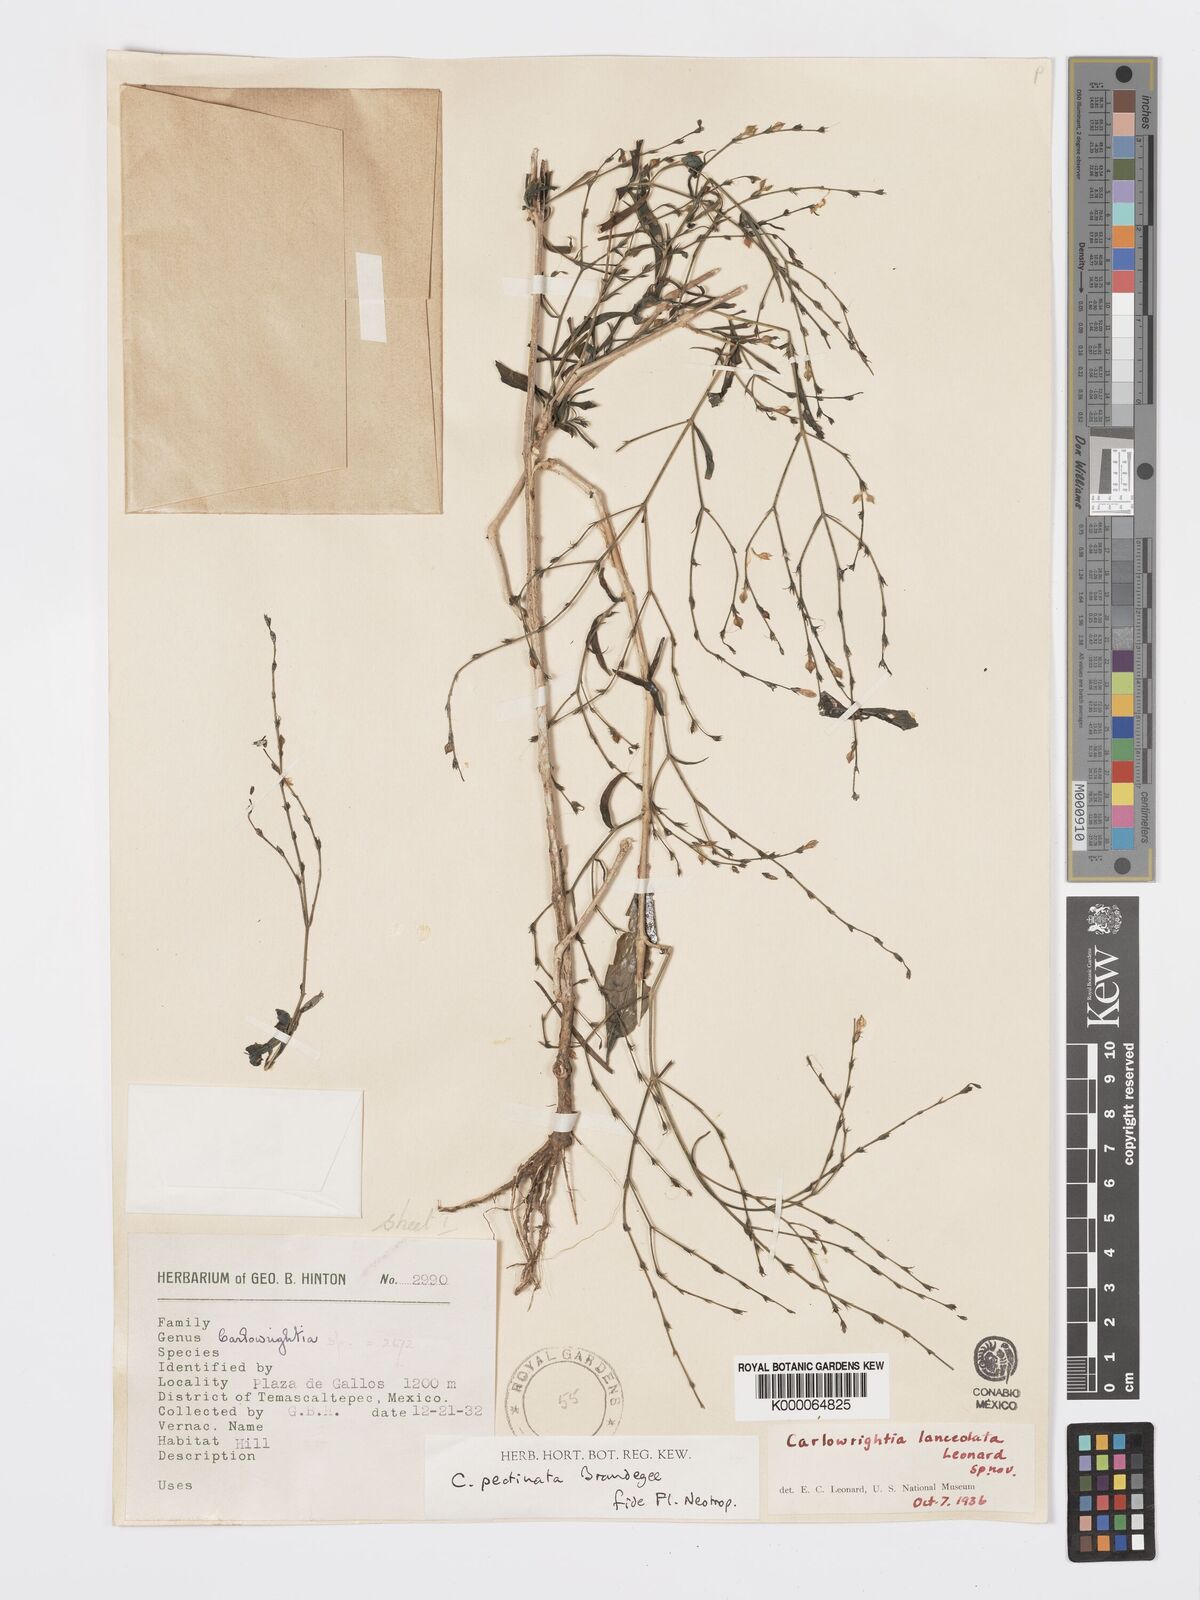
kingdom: Plantae
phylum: Tracheophyta
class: Magnoliopsida
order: Lamiales
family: Acanthaceae
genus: Carlowrightia
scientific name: Carlowrightia pectinata
